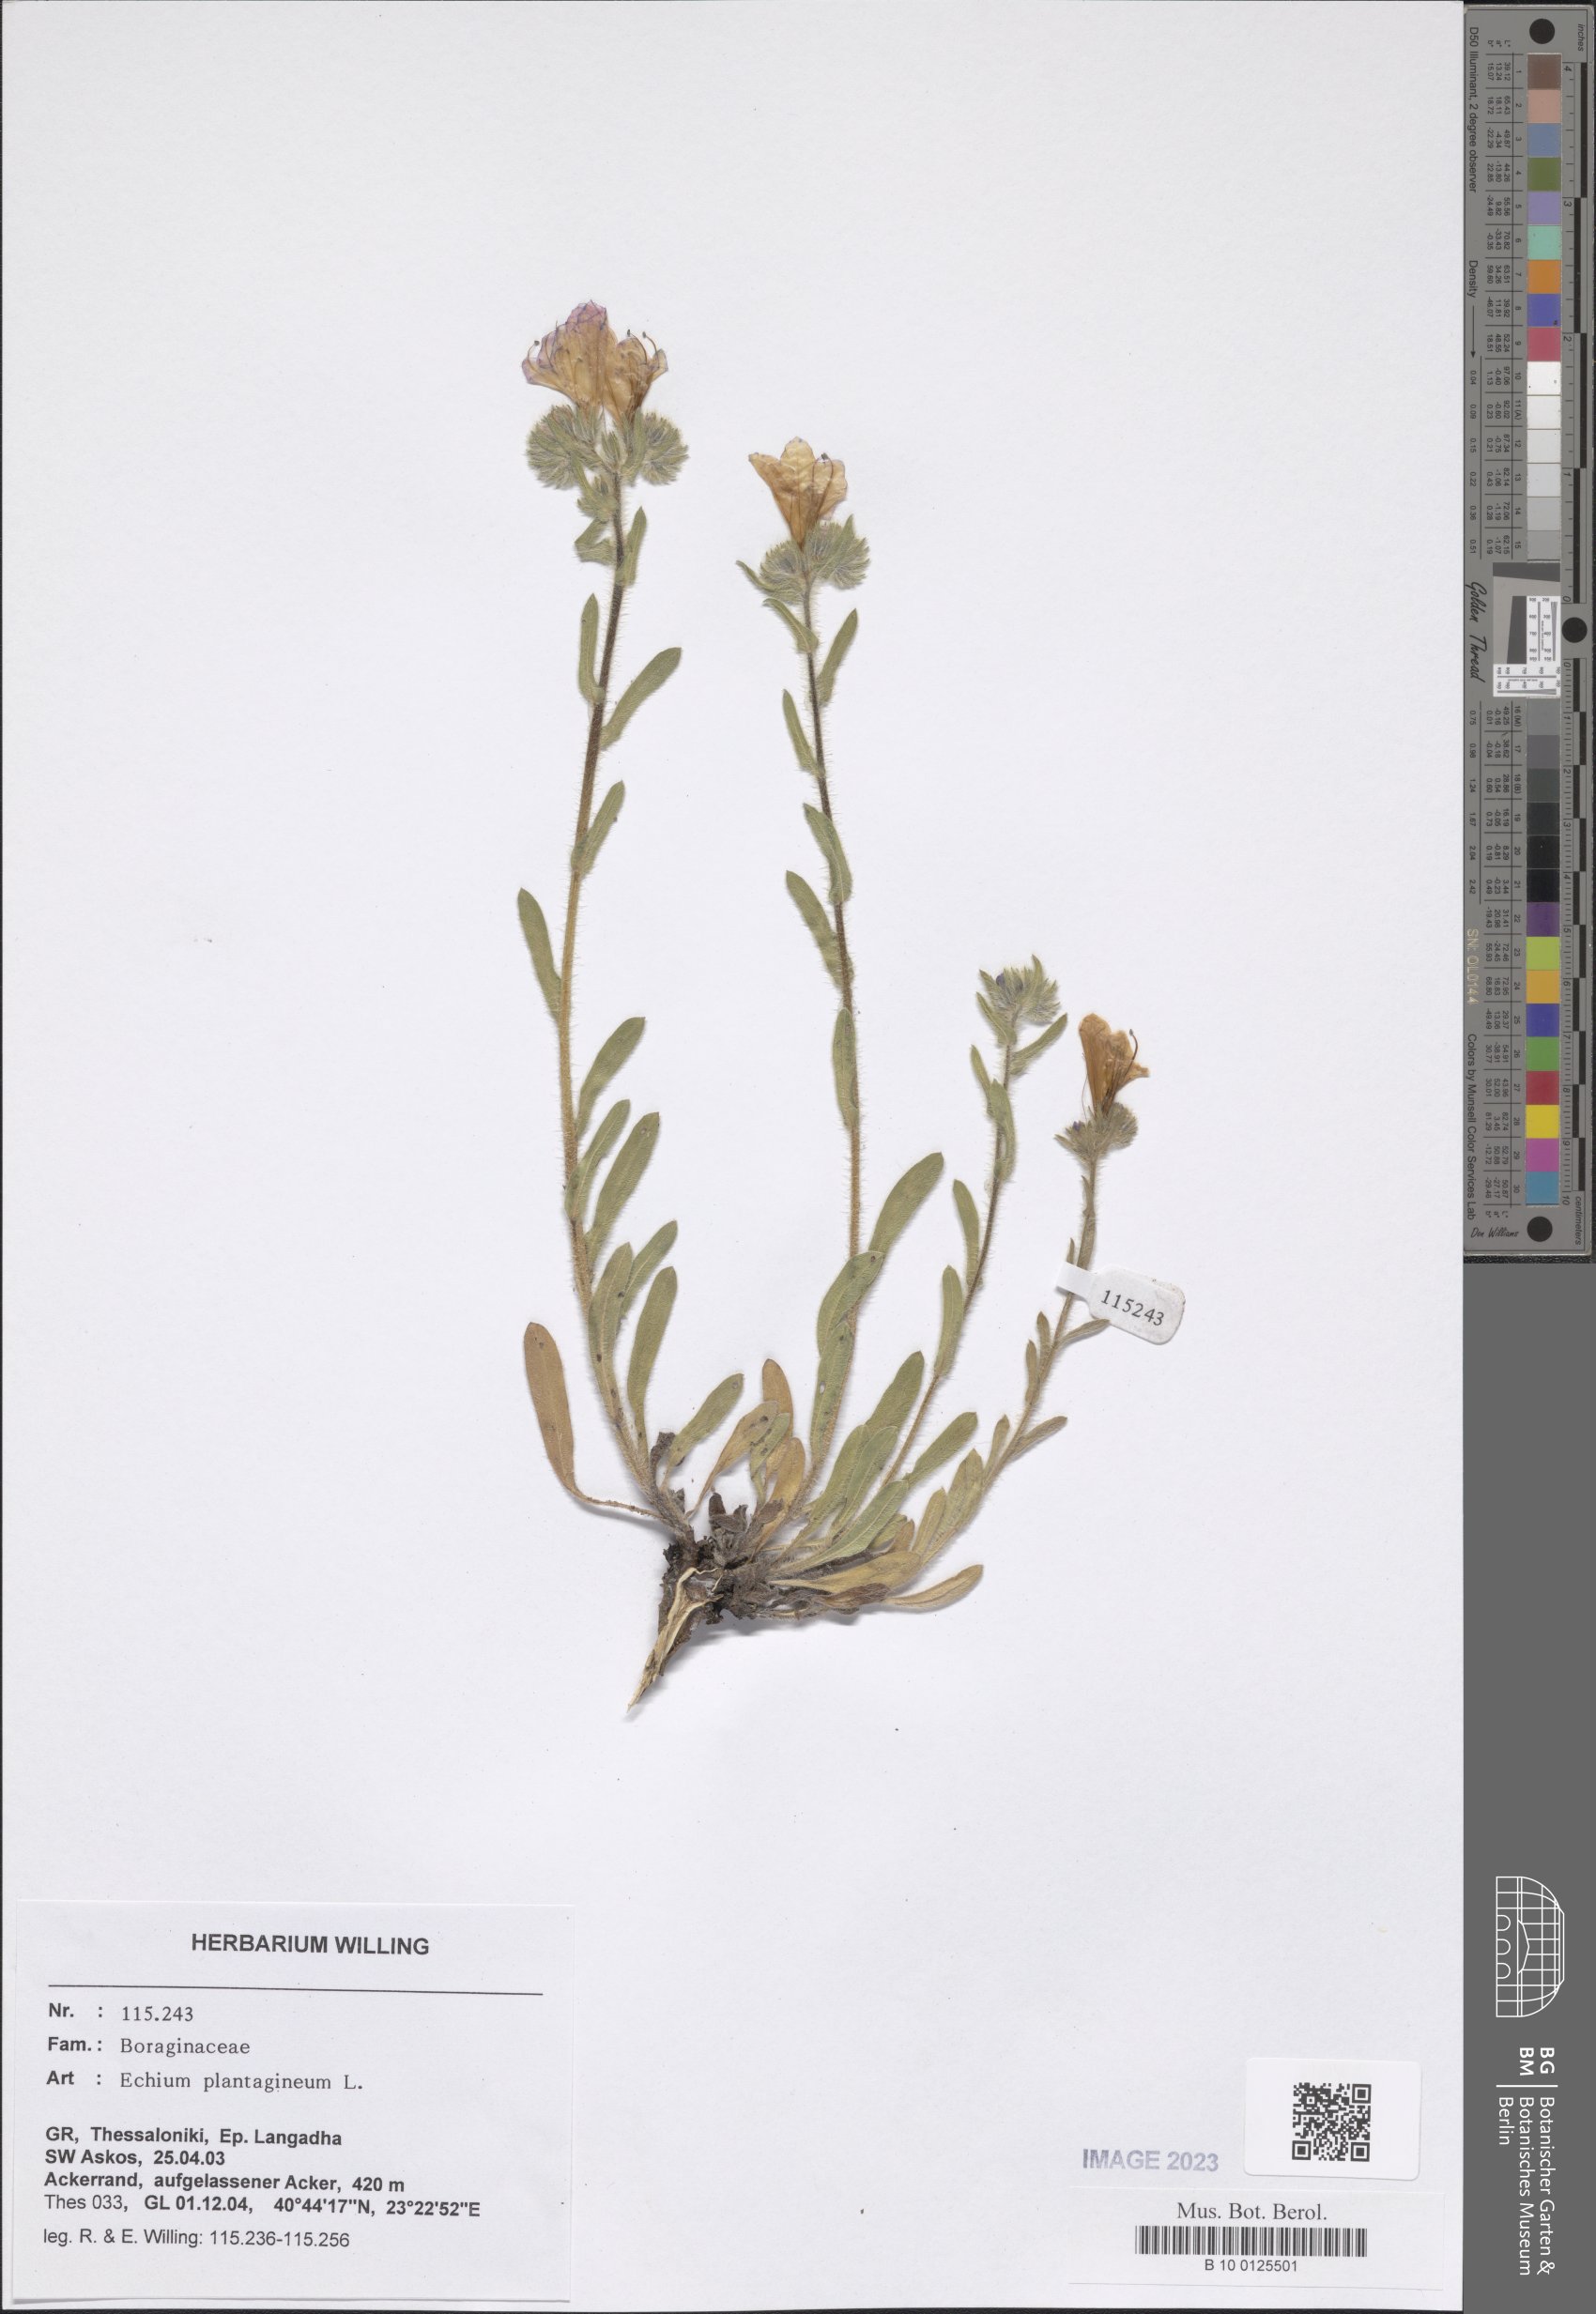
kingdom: Plantae
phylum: Tracheophyta
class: Magnoliopsida
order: Boraginales
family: Boraginaceae
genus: Echium
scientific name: Echium plantagineum
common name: Purple viper's-bugloss
